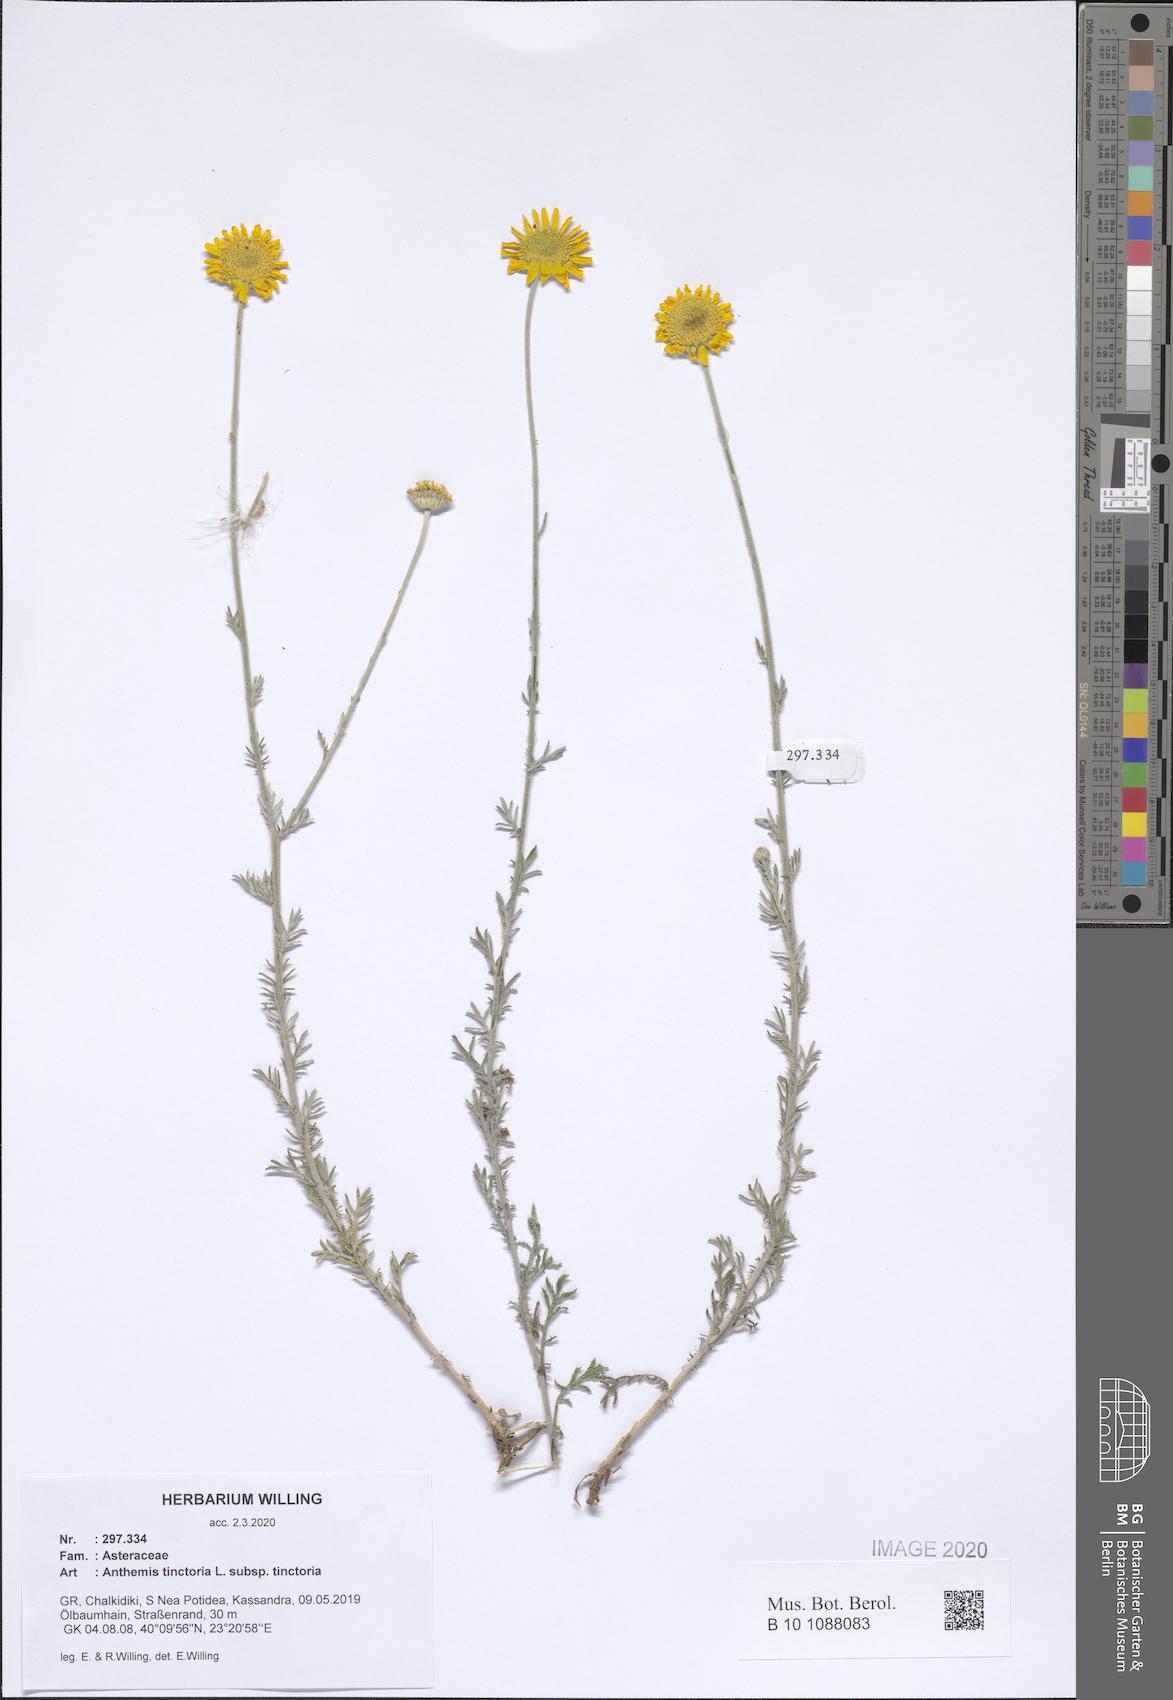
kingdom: Plantae
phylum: Tracheophyta
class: Magnoliopsida
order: Asterales
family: Asteraceae
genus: Cota
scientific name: Cota tinctoria
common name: Golden chamomile
